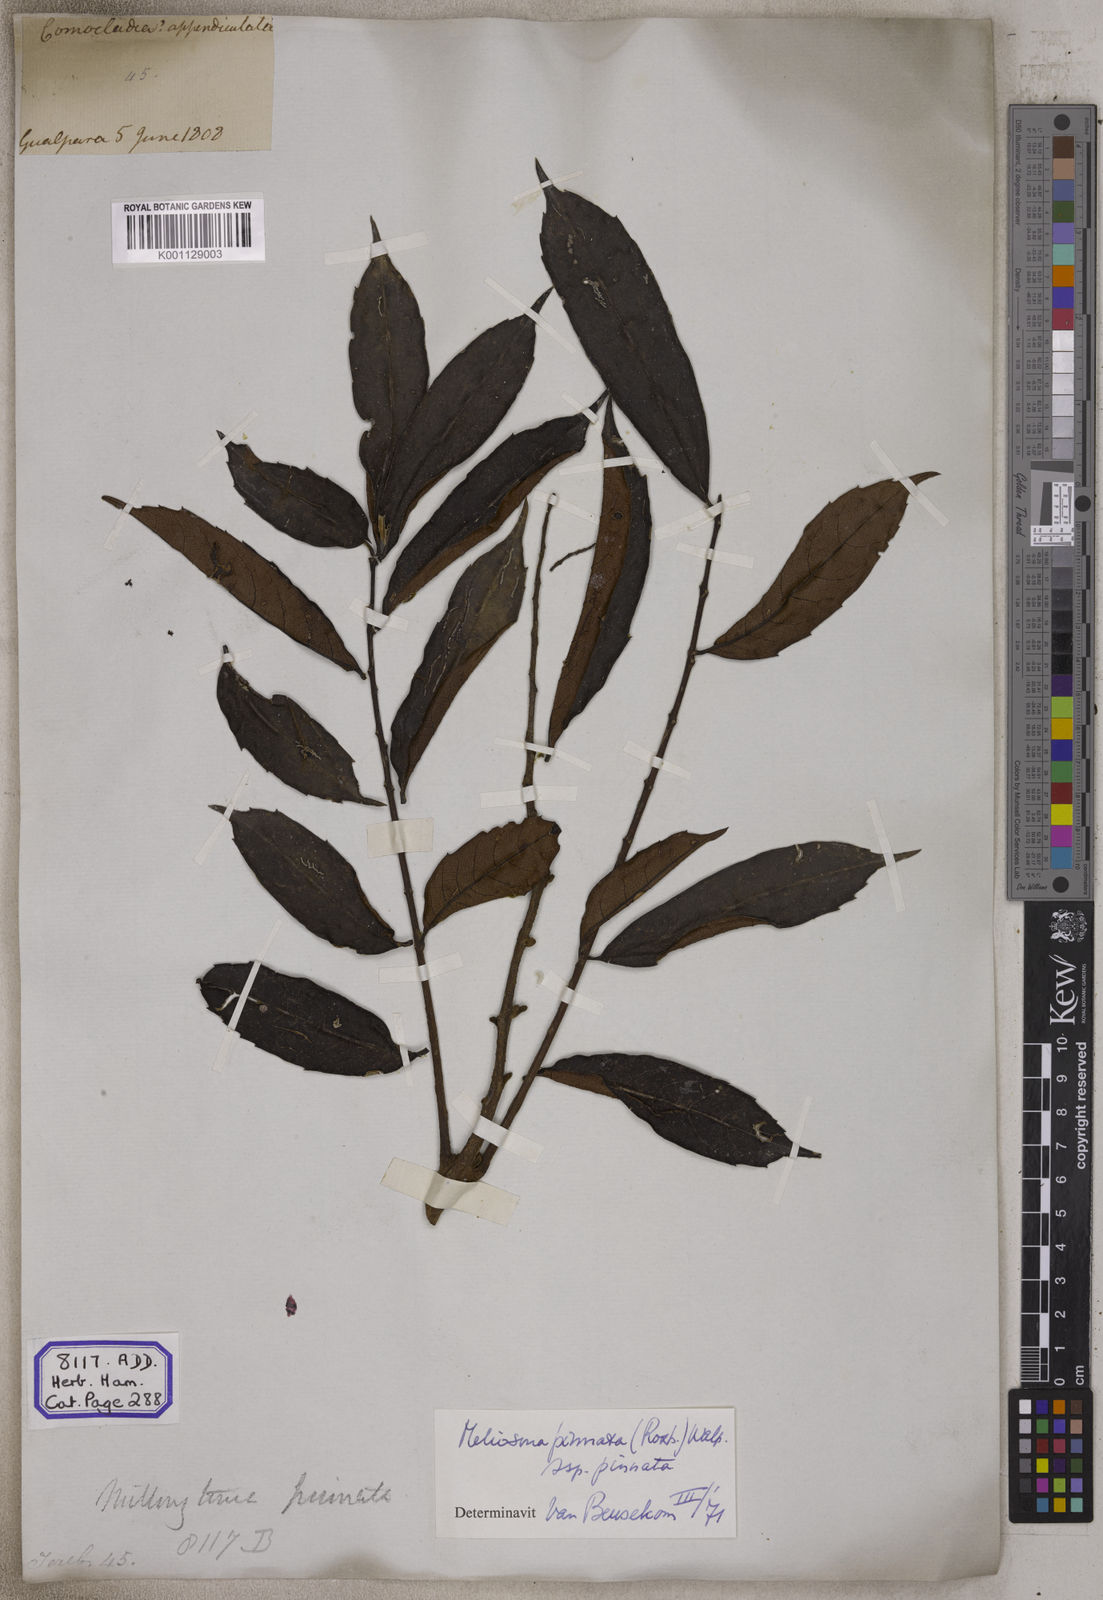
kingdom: Plantae
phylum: Tracheophyta
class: Magnoliopsida
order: Proteales
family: Sabiaceae
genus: Meliosma
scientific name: Meliosma pinnata
